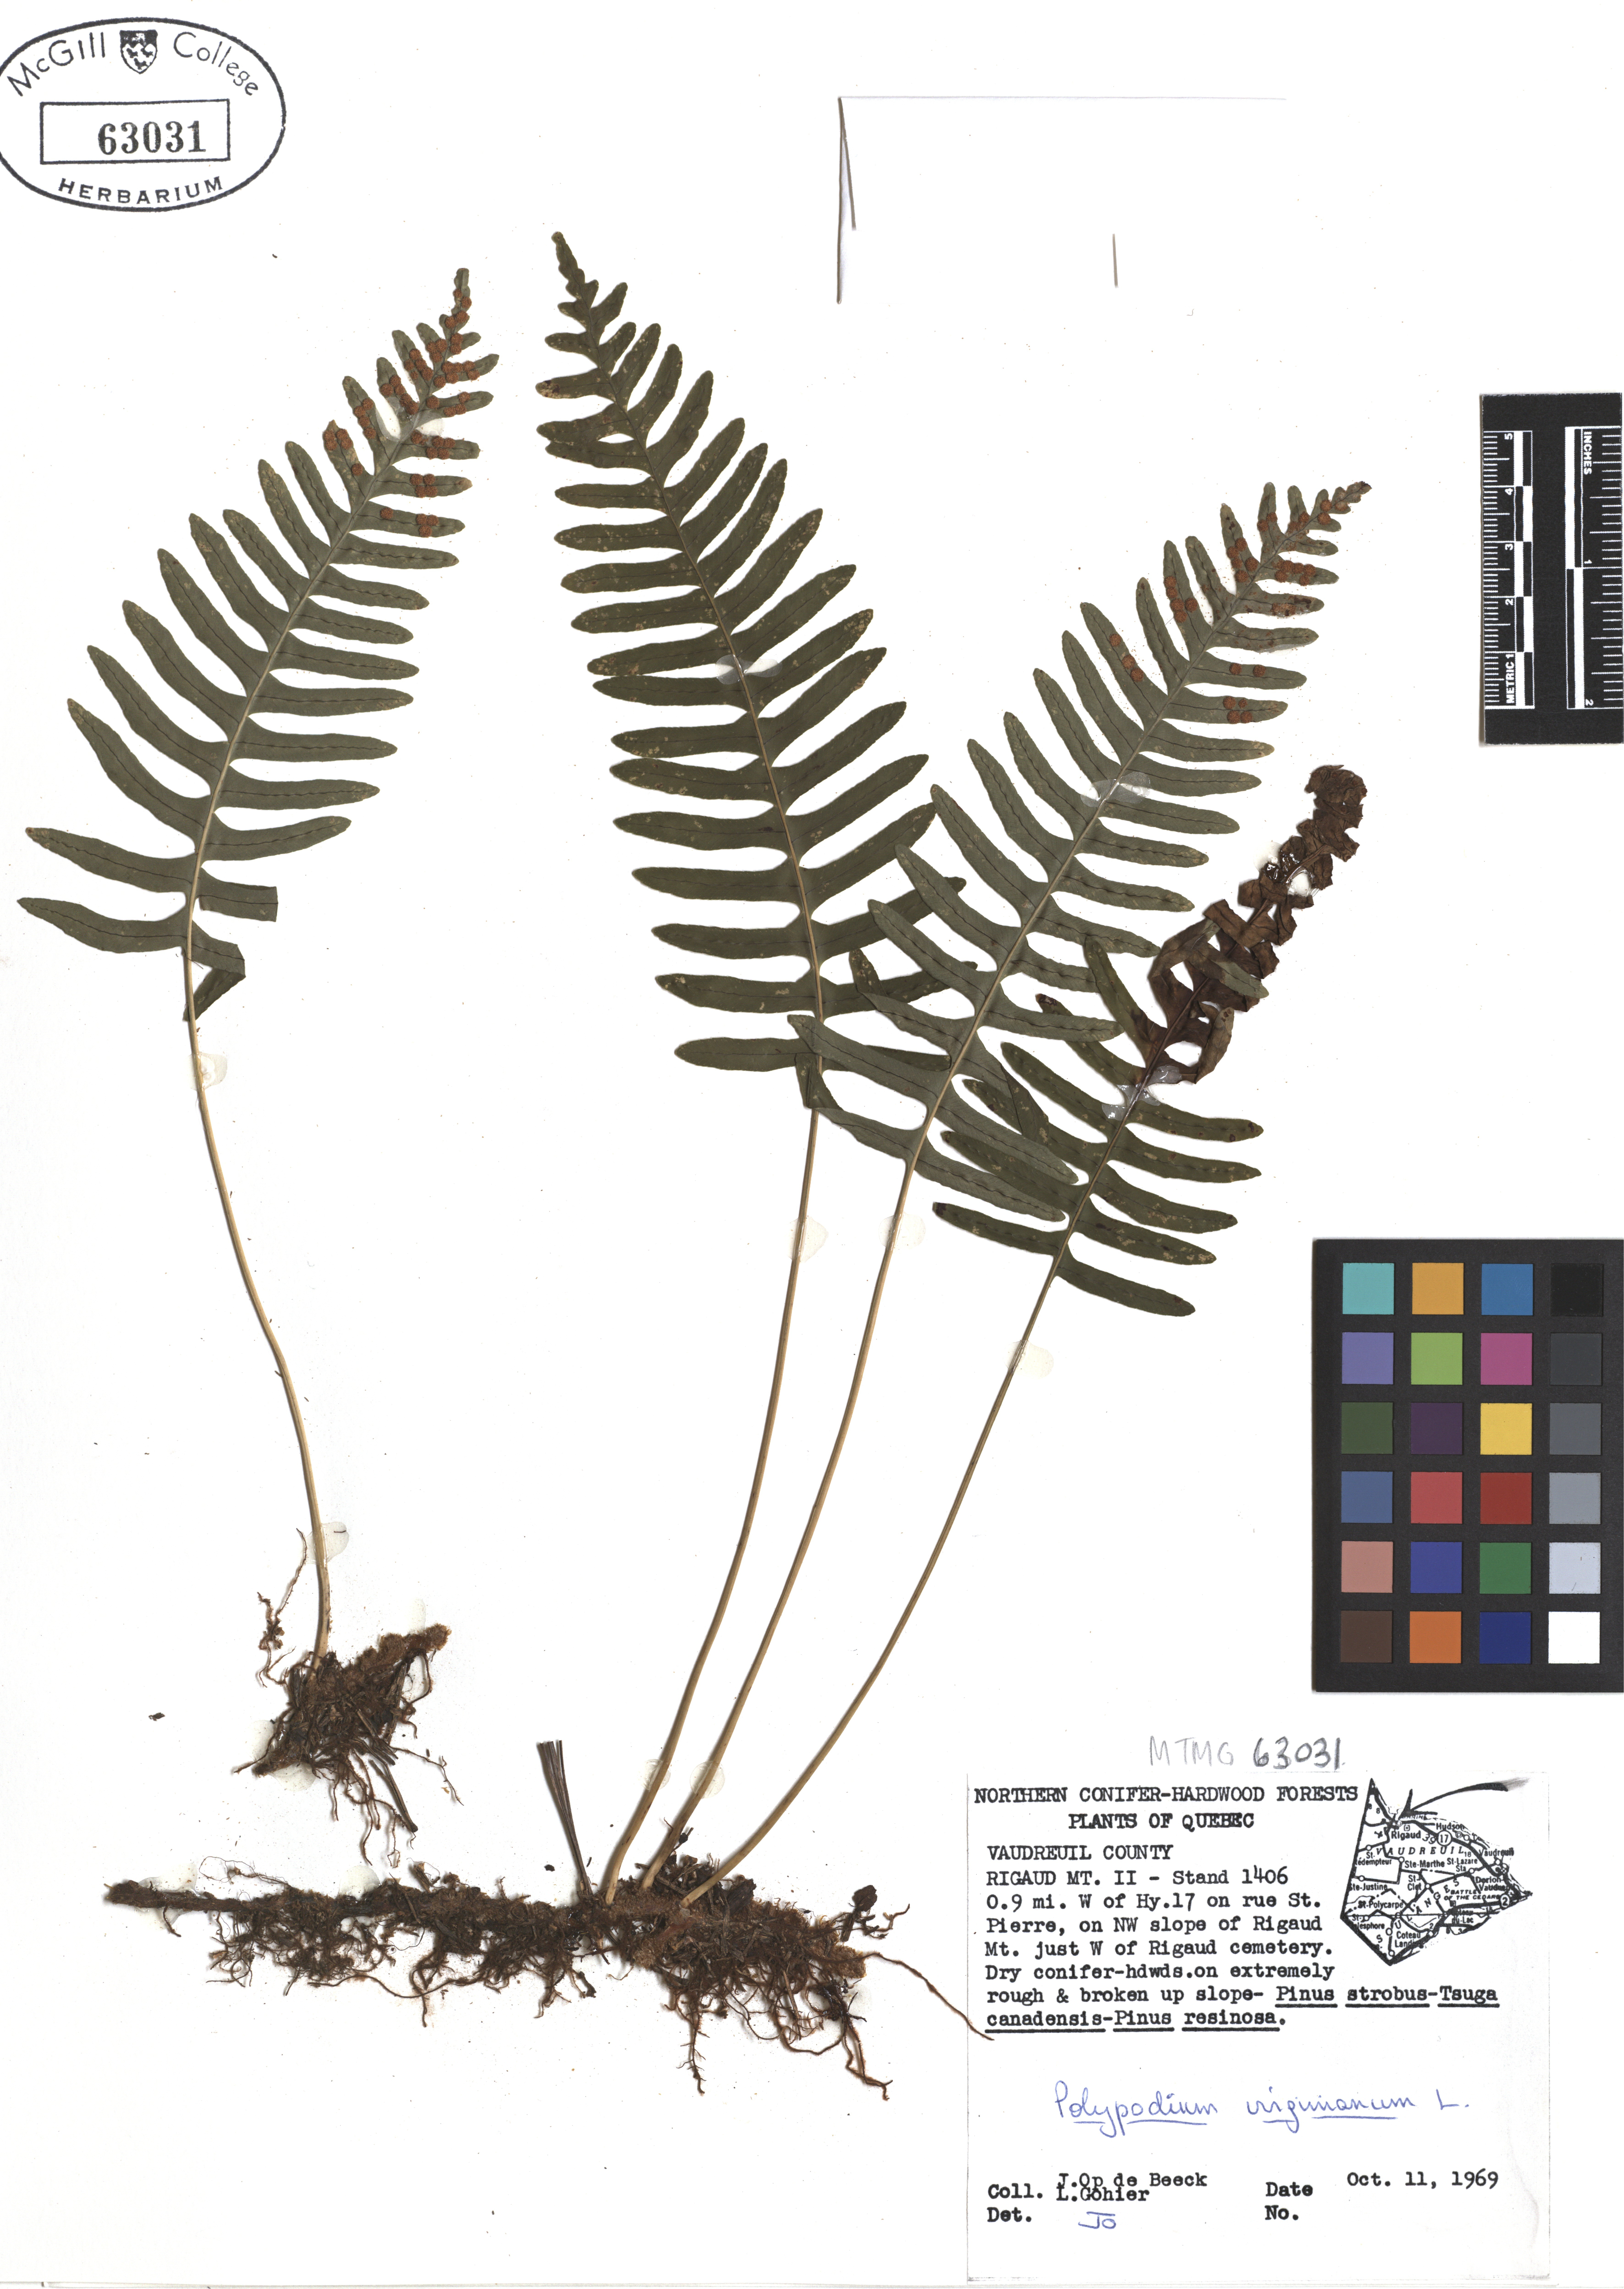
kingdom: Plantae
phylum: Tracheophyta
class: Polypodiopsida
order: Polypodiales
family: Polypodiaceae
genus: Polypodium
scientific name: Polypodium virginianum
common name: American wall fern
